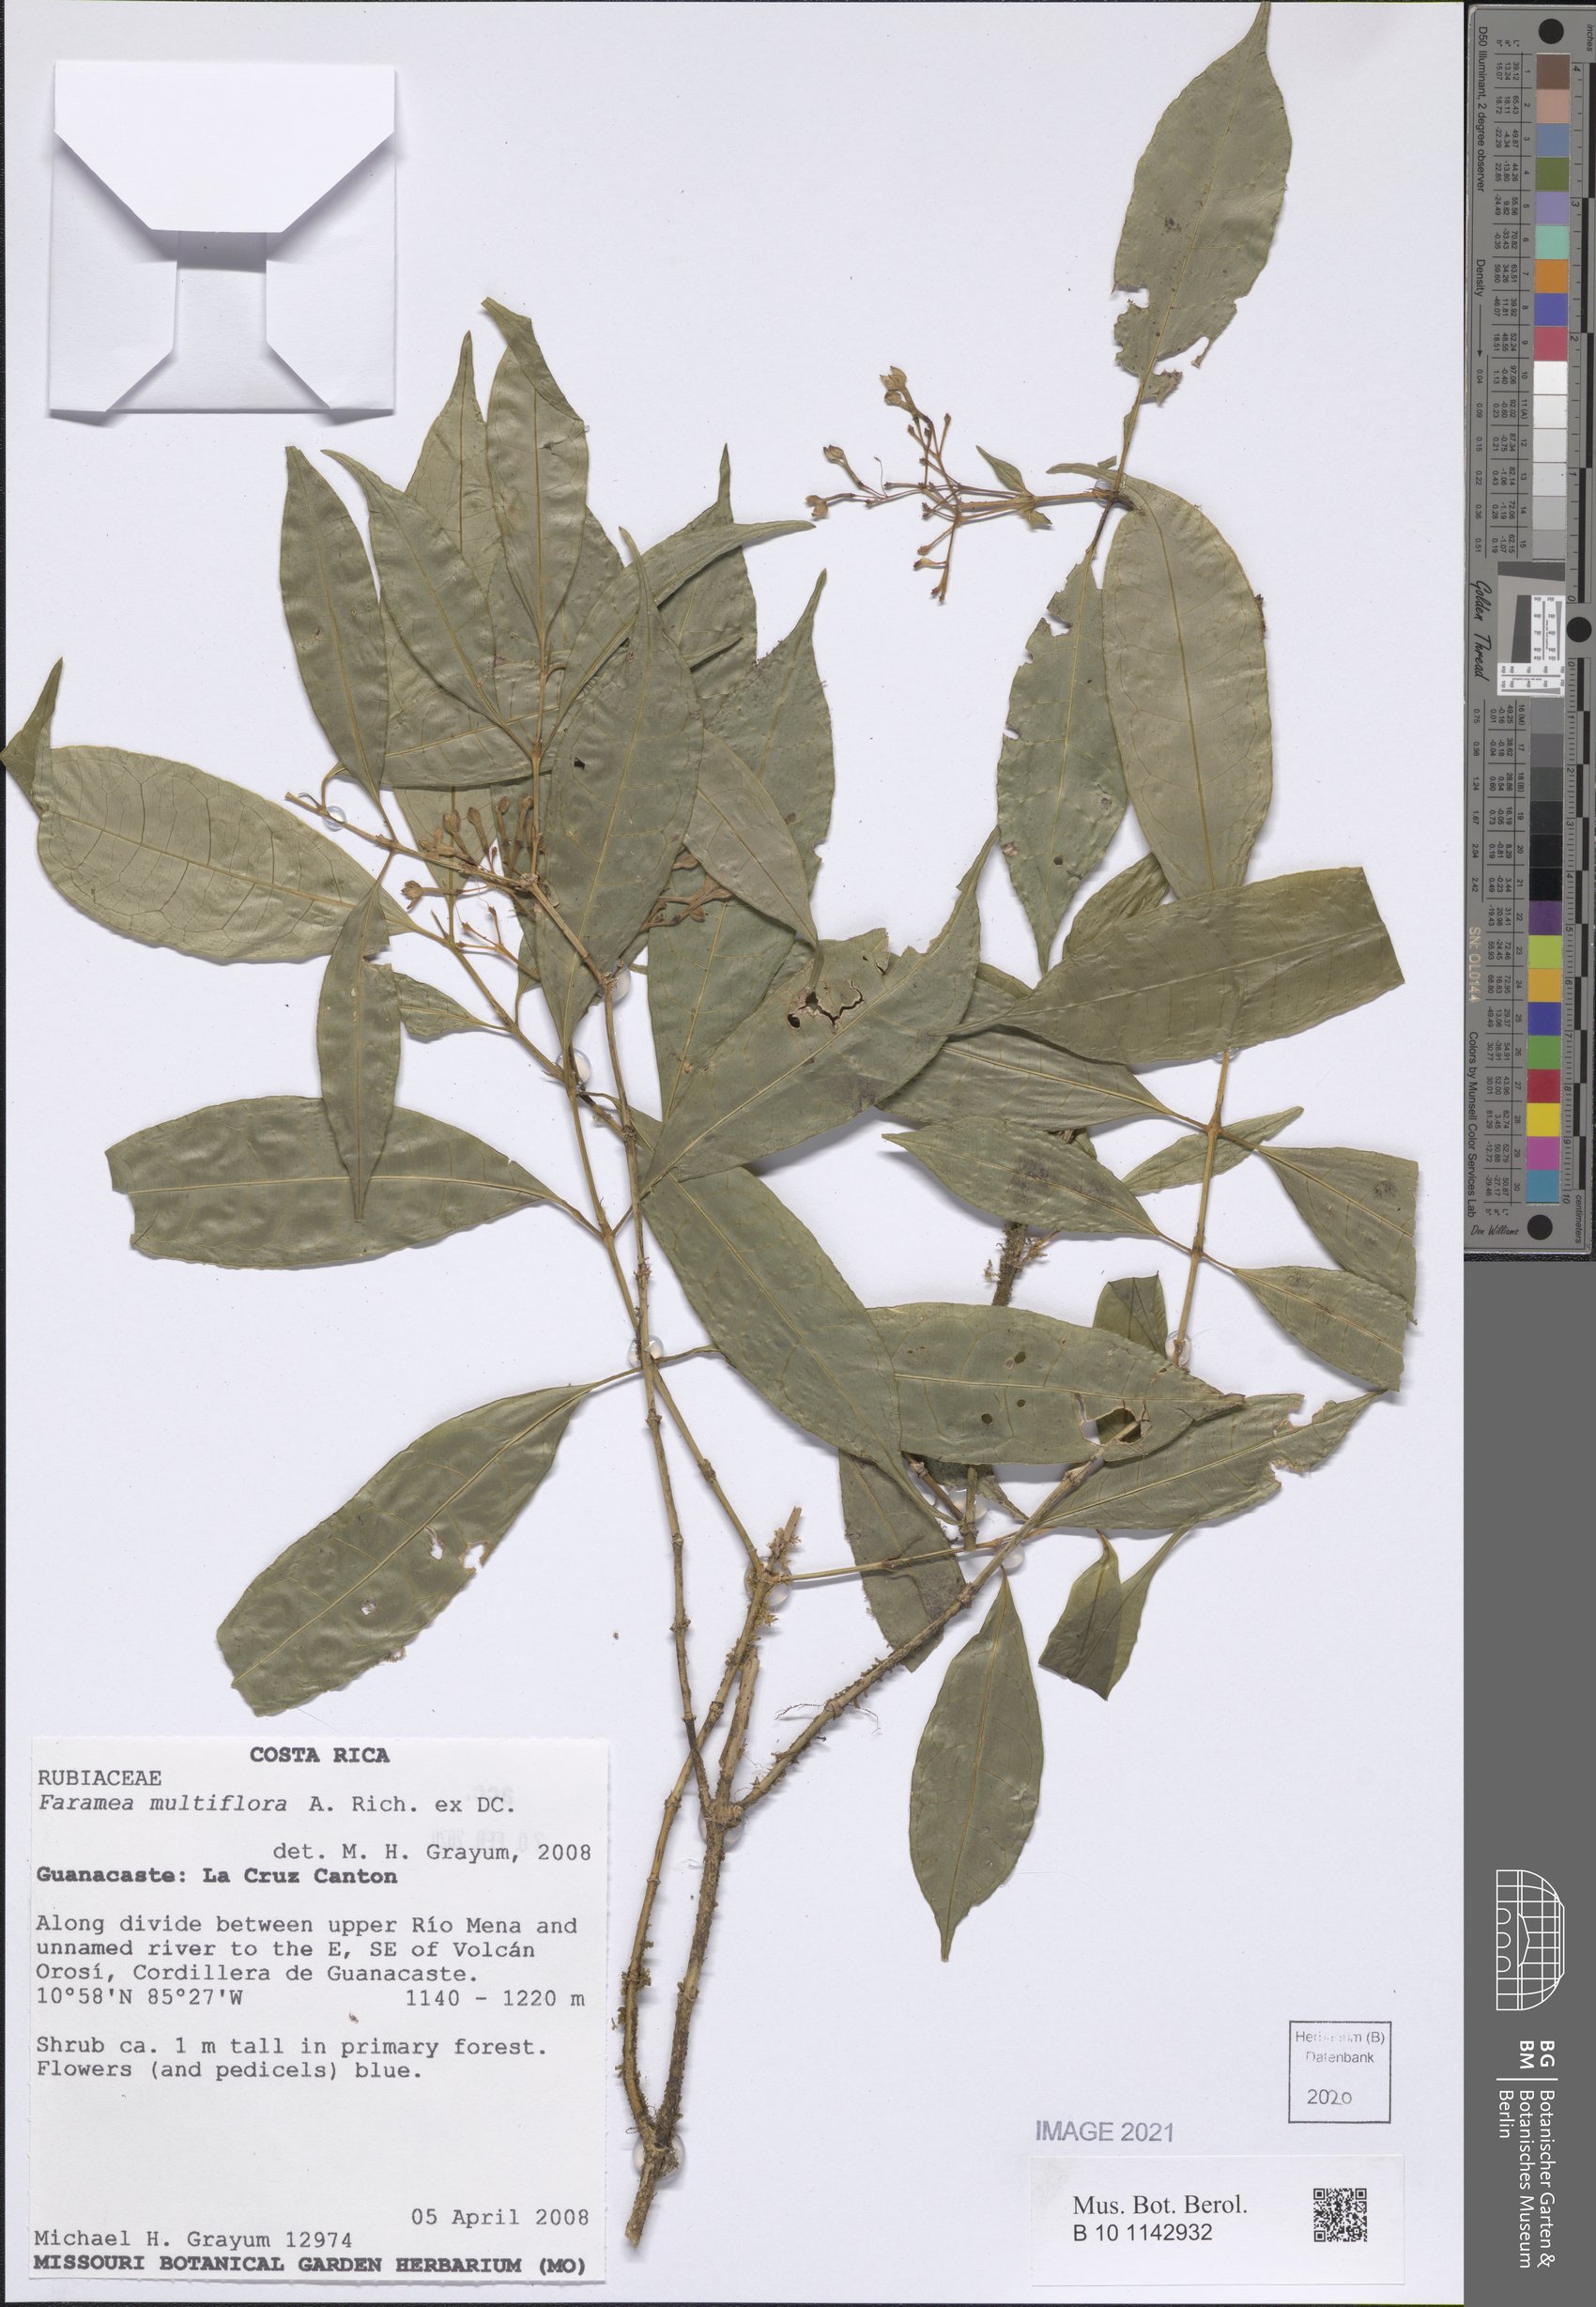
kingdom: Plantae
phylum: Tracheophyta
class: Magnoliopsida
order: Gentianales
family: Rubiaceae
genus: Faramea
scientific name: Faramea multiflora
